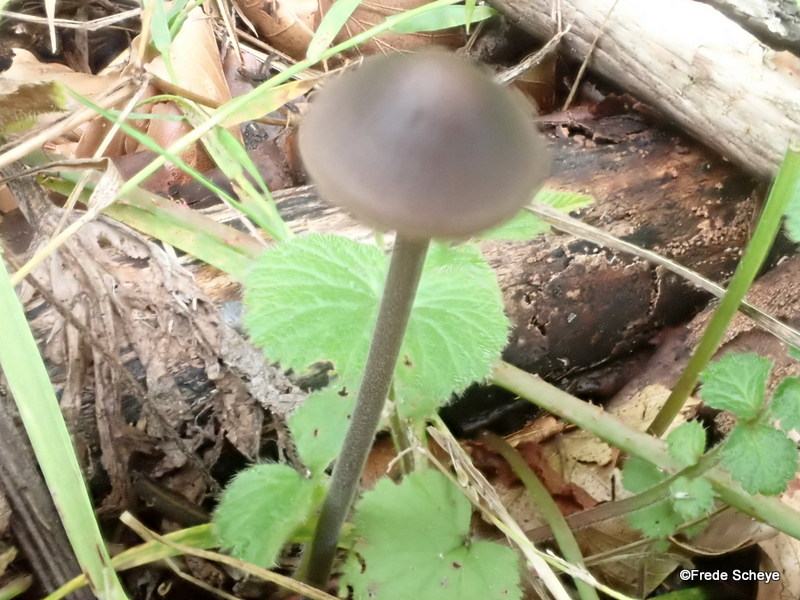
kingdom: Fungi
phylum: Basidiomycota
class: Agaricomycetes
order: Agaricales
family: Omphalotaceae
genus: Mycetinis
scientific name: Mycetinis alliaceus
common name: stor løghat
